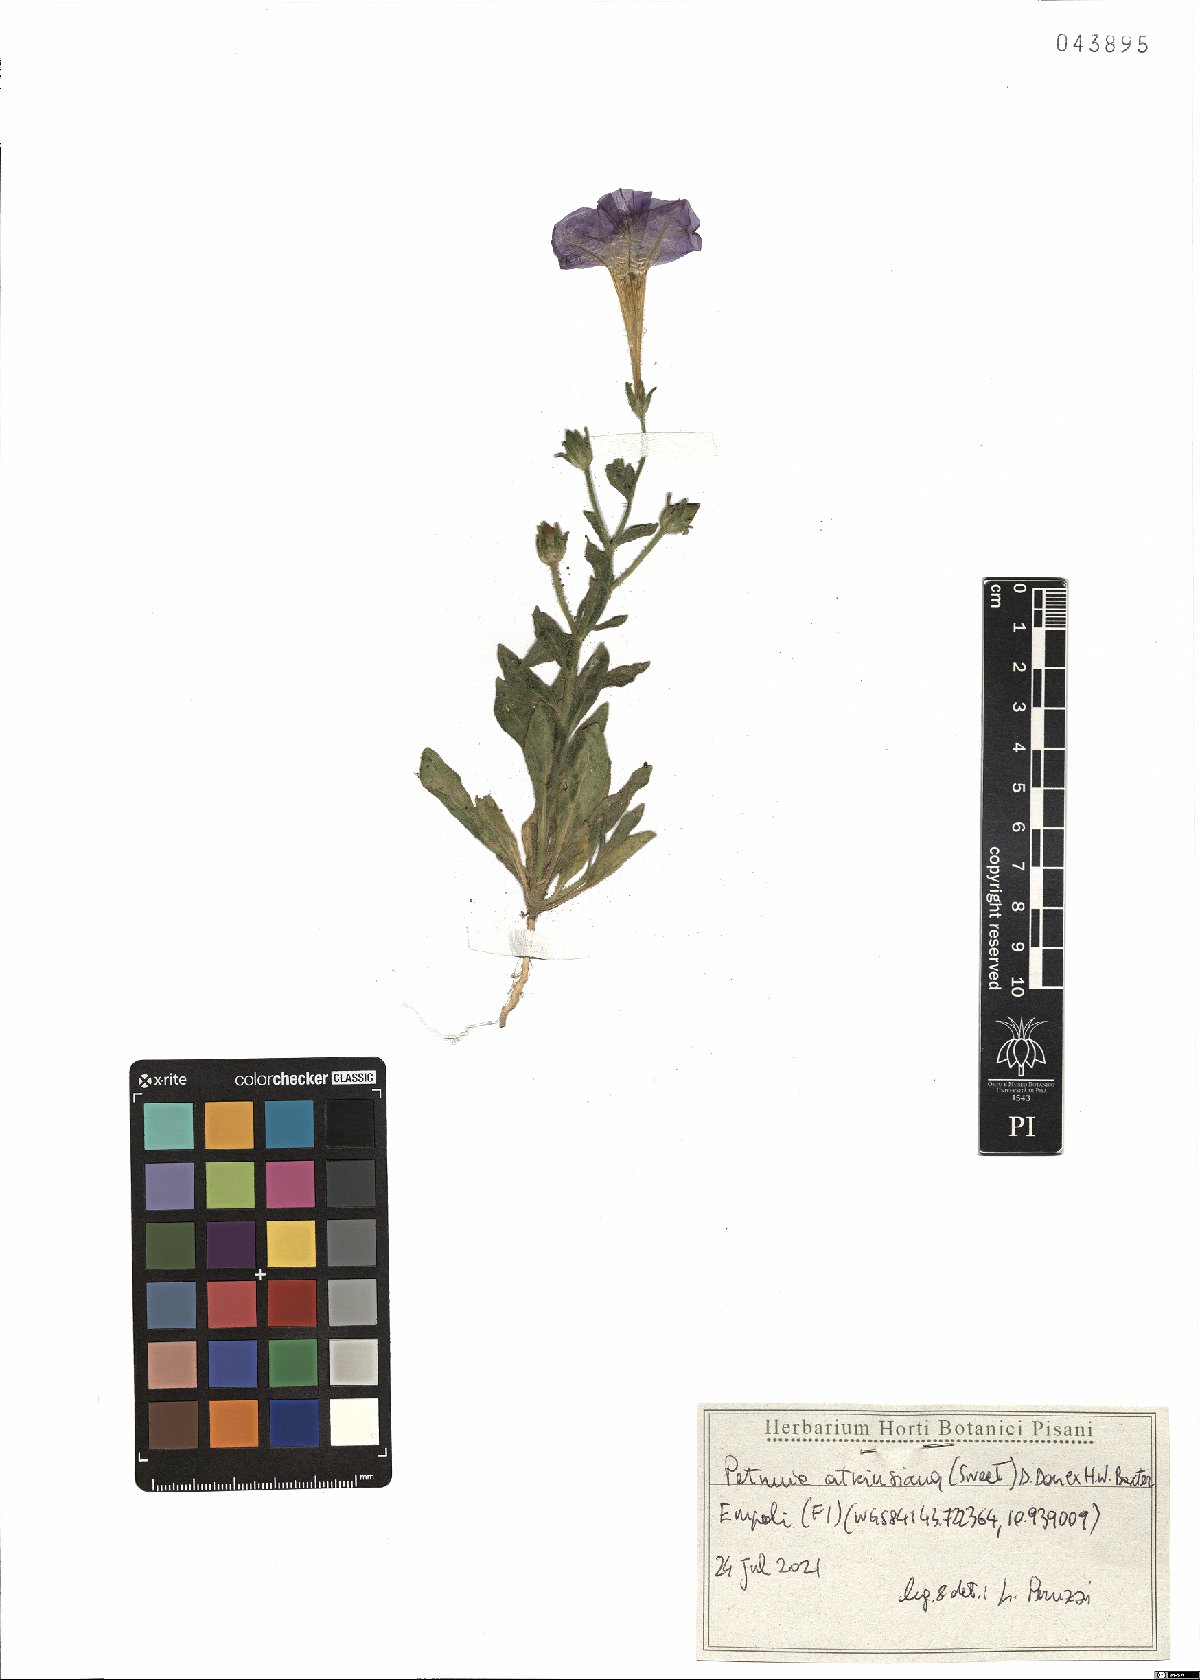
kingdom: Plantae
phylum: Tracheophyta
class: Magnoliopsida
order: Solanales
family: Solanaceae
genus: Petunia
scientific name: Petunia atkinsiana
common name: Petunia
